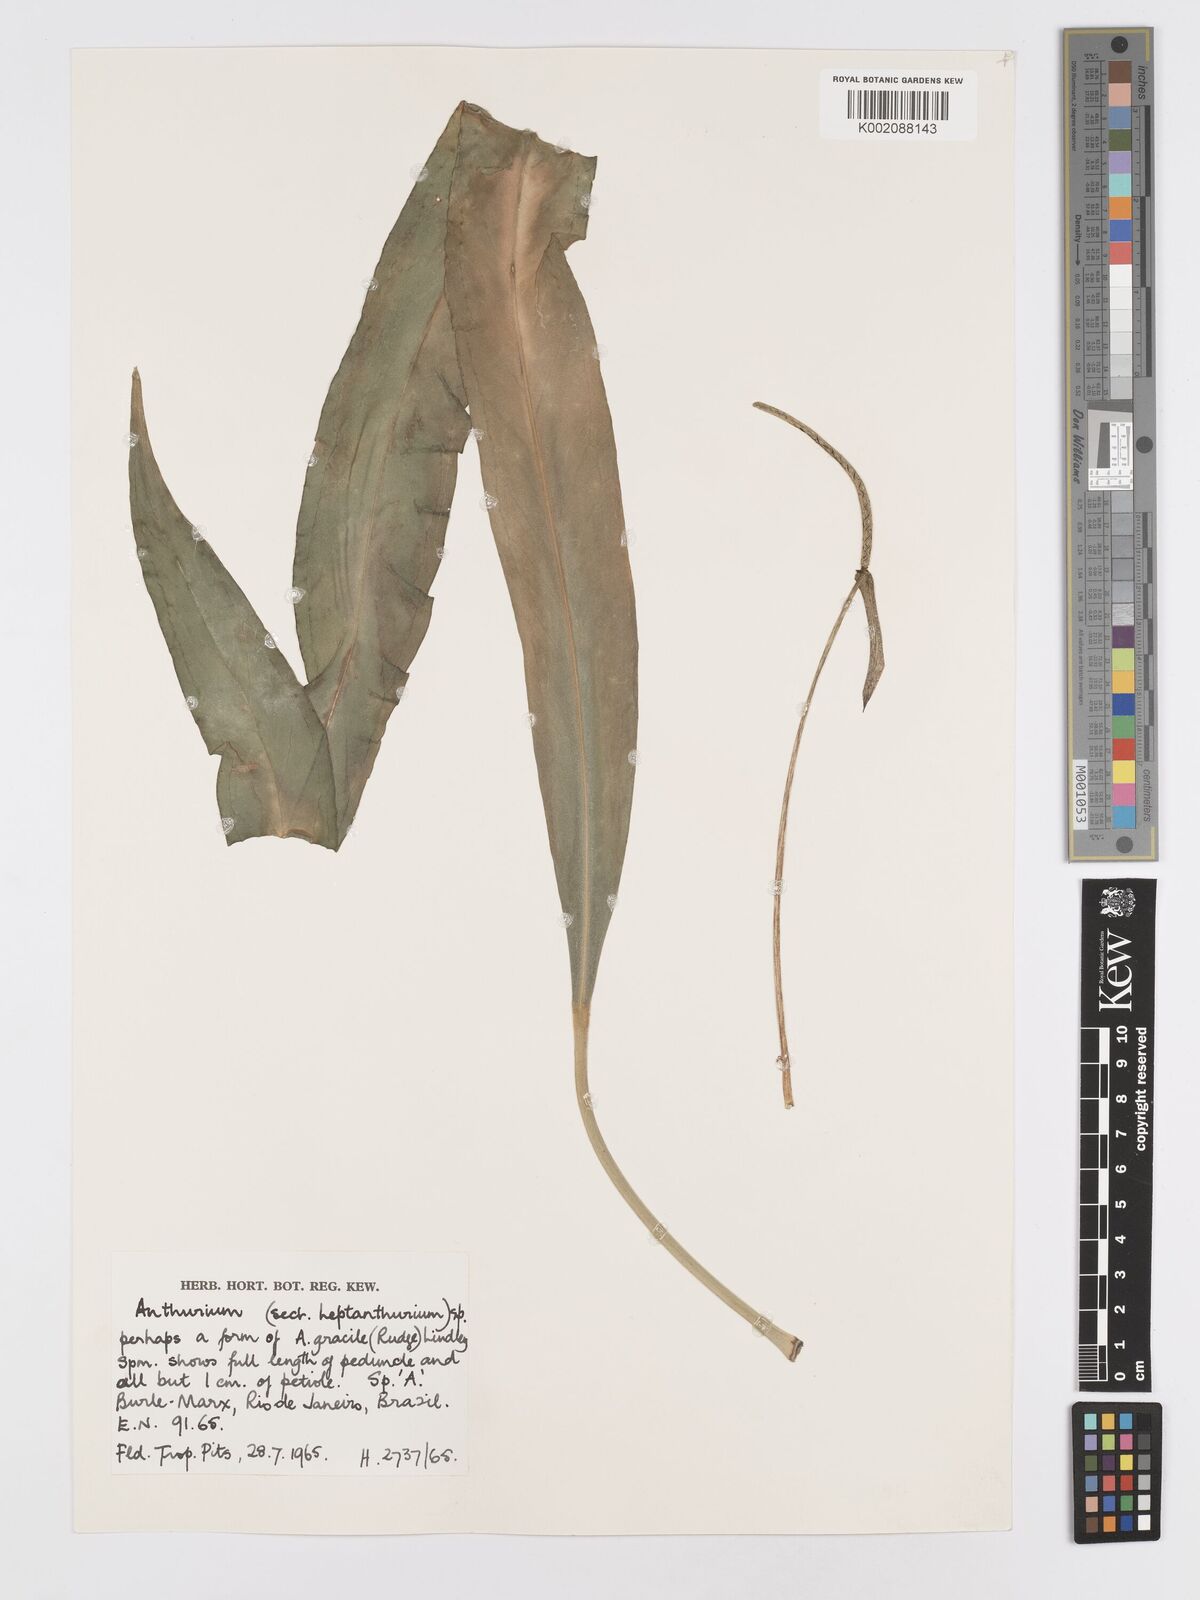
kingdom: Plantae
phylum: Tracheophyta
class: Liliopsida
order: Alismatales
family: Araceae
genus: Anthurium
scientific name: Anthurium
